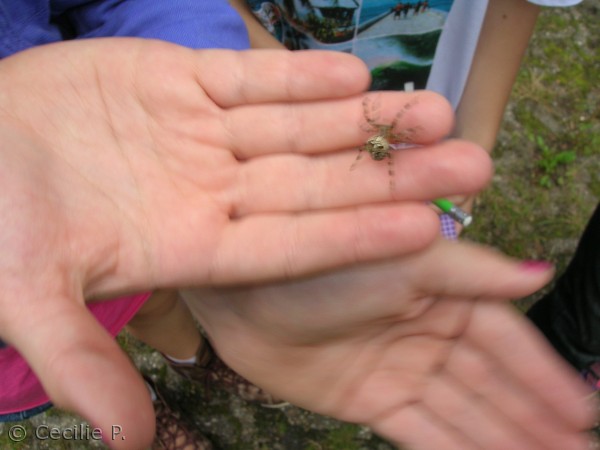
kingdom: Animalia
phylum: Arthropoda
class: Arachnida
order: Araneae
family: Araneidae
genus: Araneus
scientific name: Araneus diadematus
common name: Korsedderkop
